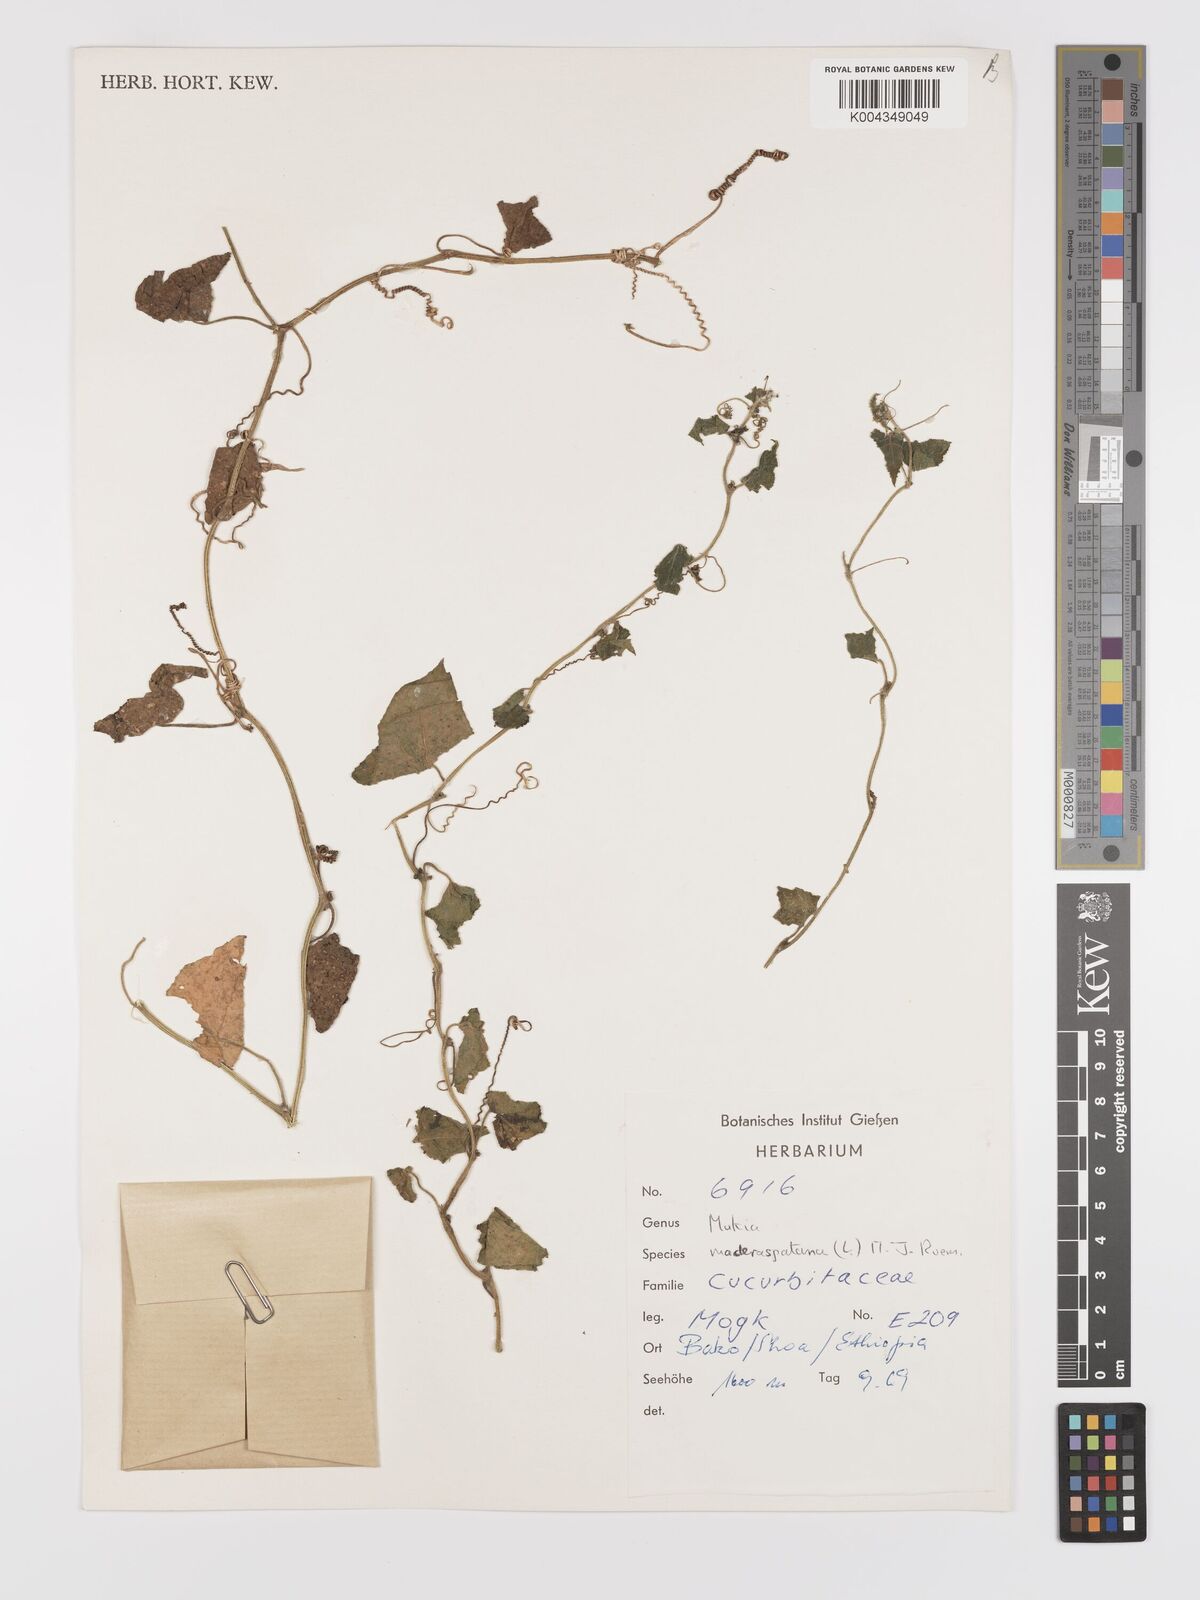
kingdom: Plantae
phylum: Tracheophyta
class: Magnoliopsida
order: Cucurbitales
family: Cucurbitaceae
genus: Cucumis
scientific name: Cucumis maderaspatanus
